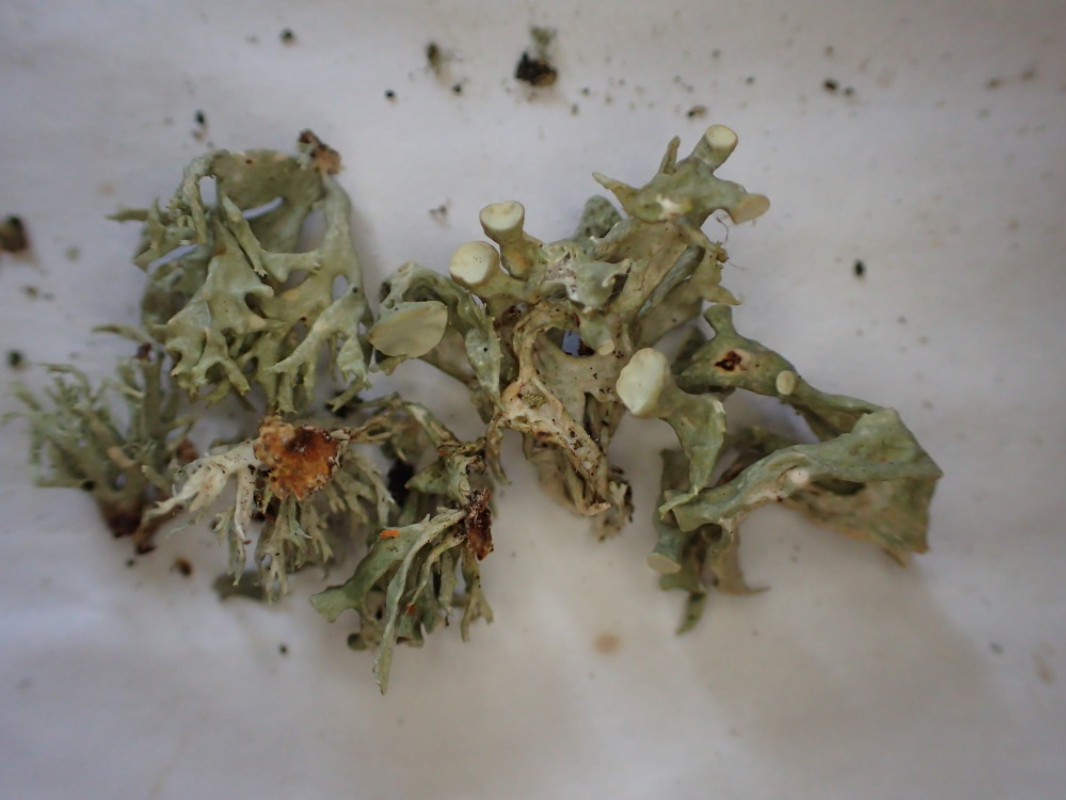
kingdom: Fungi
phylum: Ascomycota
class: Lecanoromycetes
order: Lecanorales
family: Ramalinaceae
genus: Ramalina
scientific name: Ramalina fastigiata
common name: tue-grenlav
